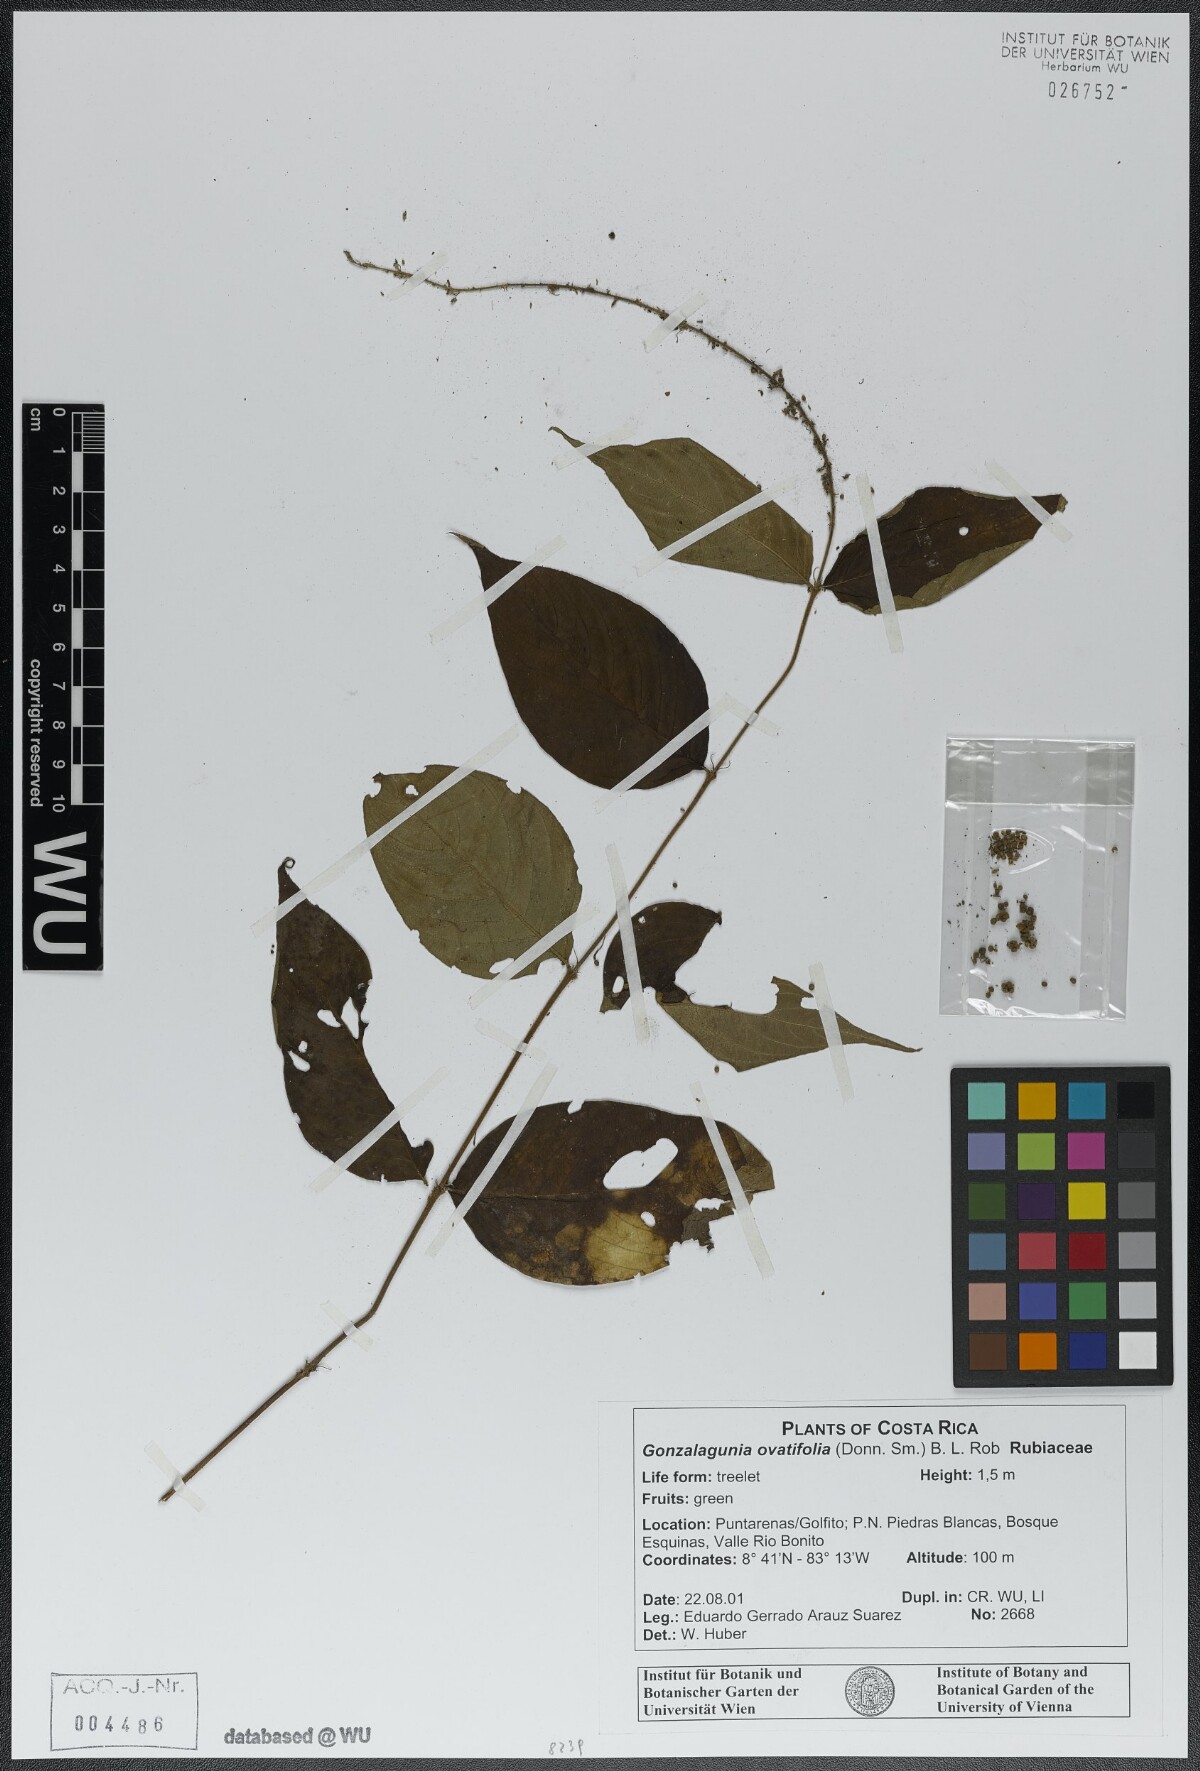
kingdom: Plantae
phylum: Tracheophyta
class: Magnoliopsida
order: Gentianales
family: Rubiaceae
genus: Gonzalagunia
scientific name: Gonzalagunia ovatifolia
